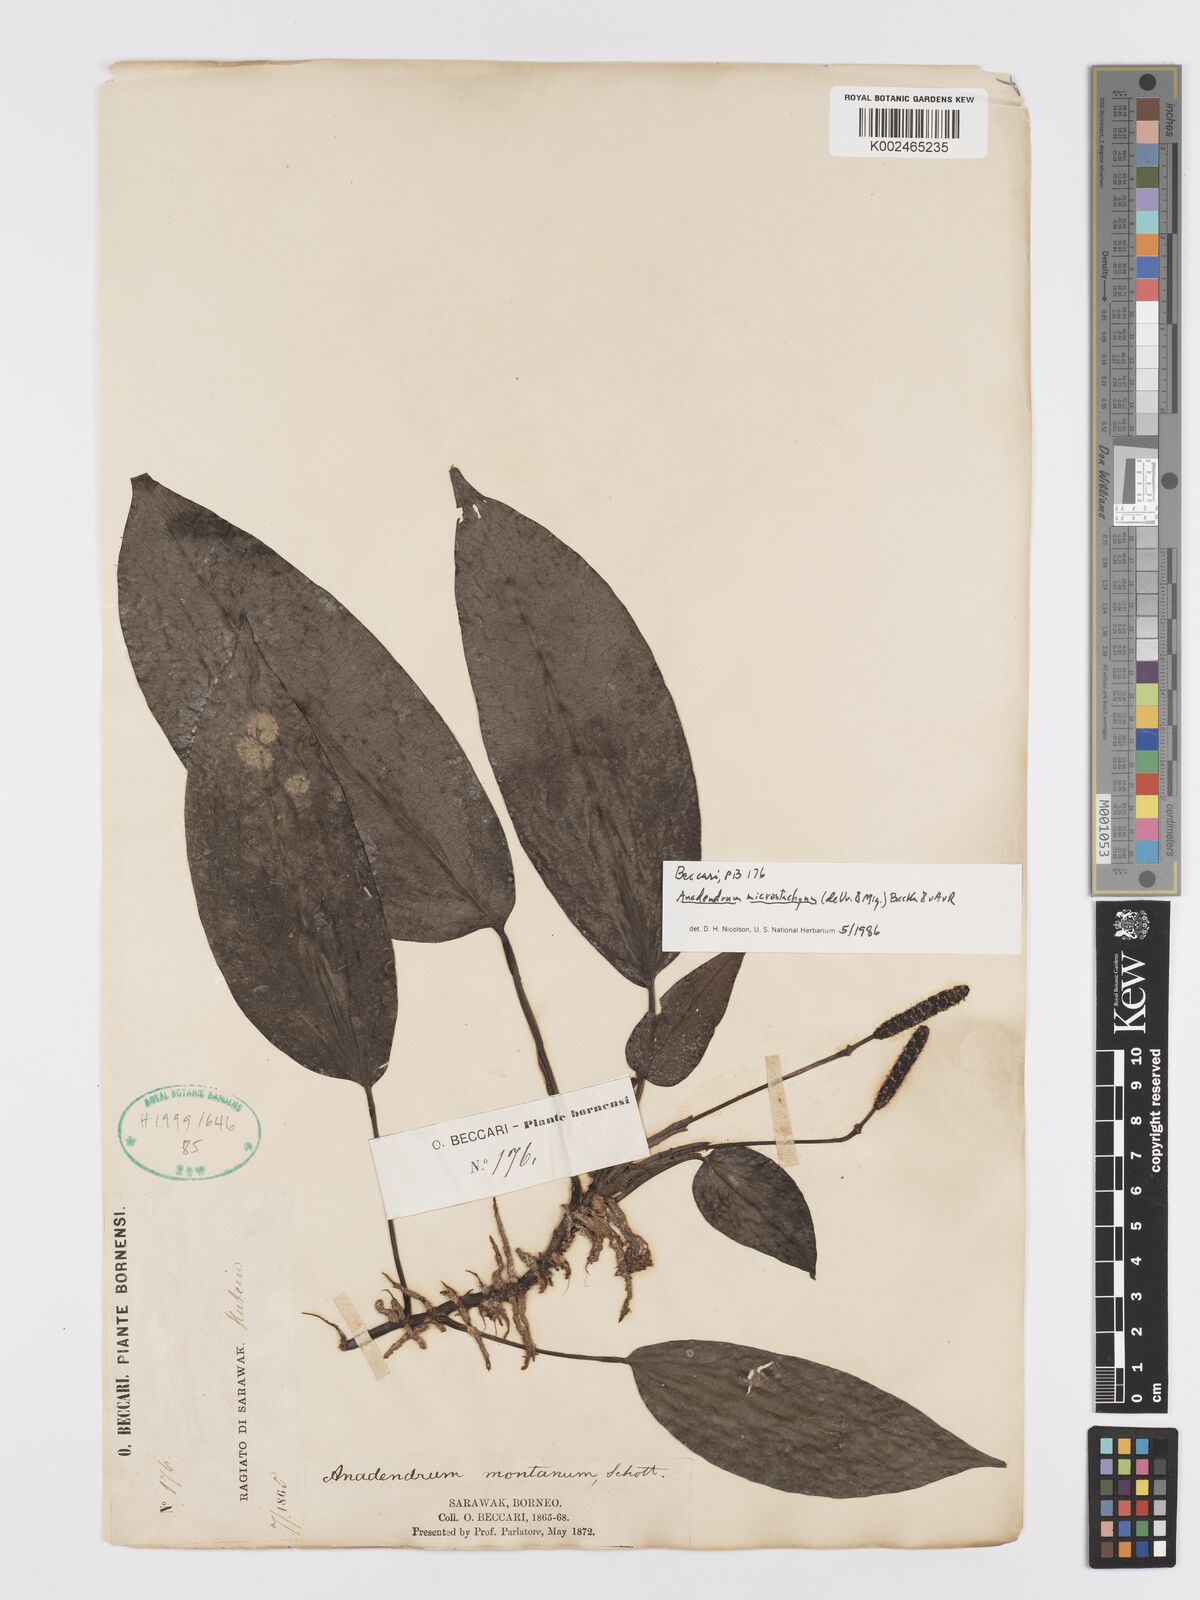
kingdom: Plantae
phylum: Tracheophyta
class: Liliopsida
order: Alismatales
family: Araceae
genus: Anadendrum
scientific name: Anadendrum microstachyum
